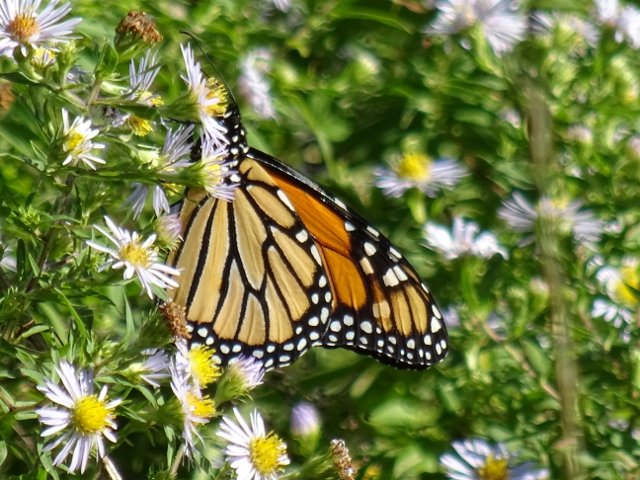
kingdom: Animalia
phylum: Arthropoda
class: Insecta
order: Lepidoptera
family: Nymphalidae
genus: Danaus
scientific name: Danaus plexippus
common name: Monarch
